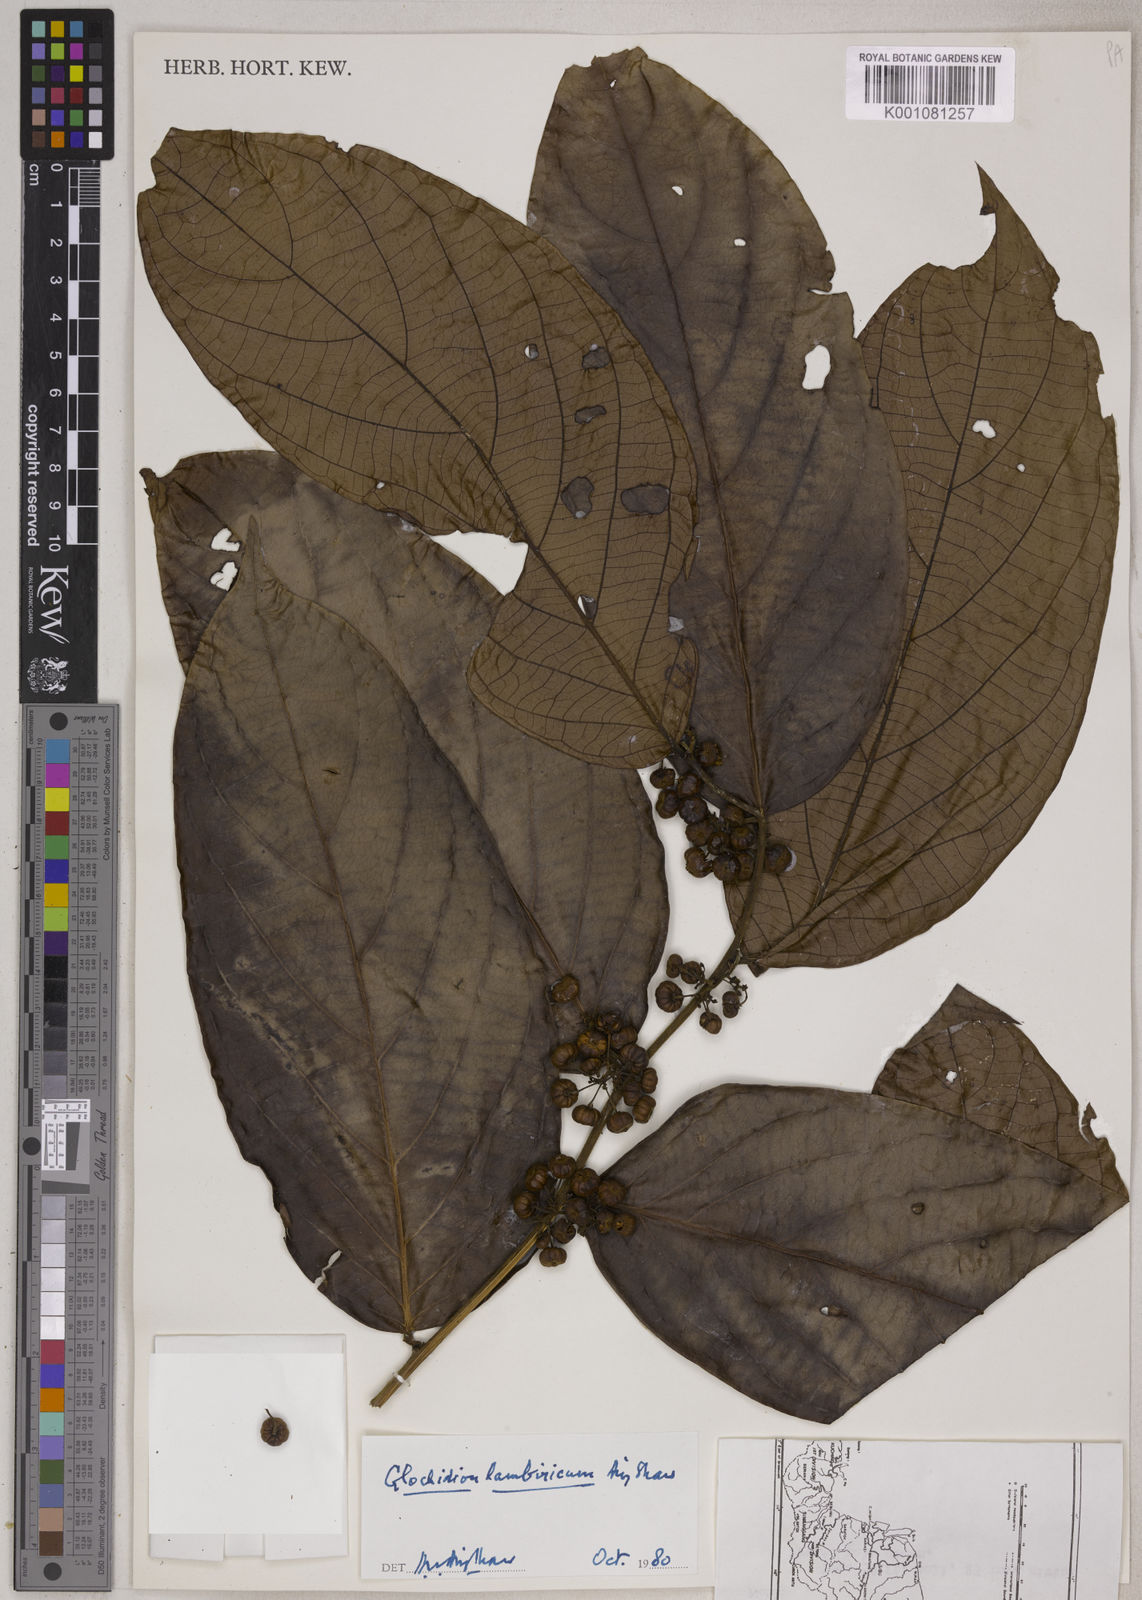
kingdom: Plantae
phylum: Tracheophyta
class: Magnoliopsida
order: Malpighiales
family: Phyllanthaceae
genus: Glochidion
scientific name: Glochidion lambiricum
